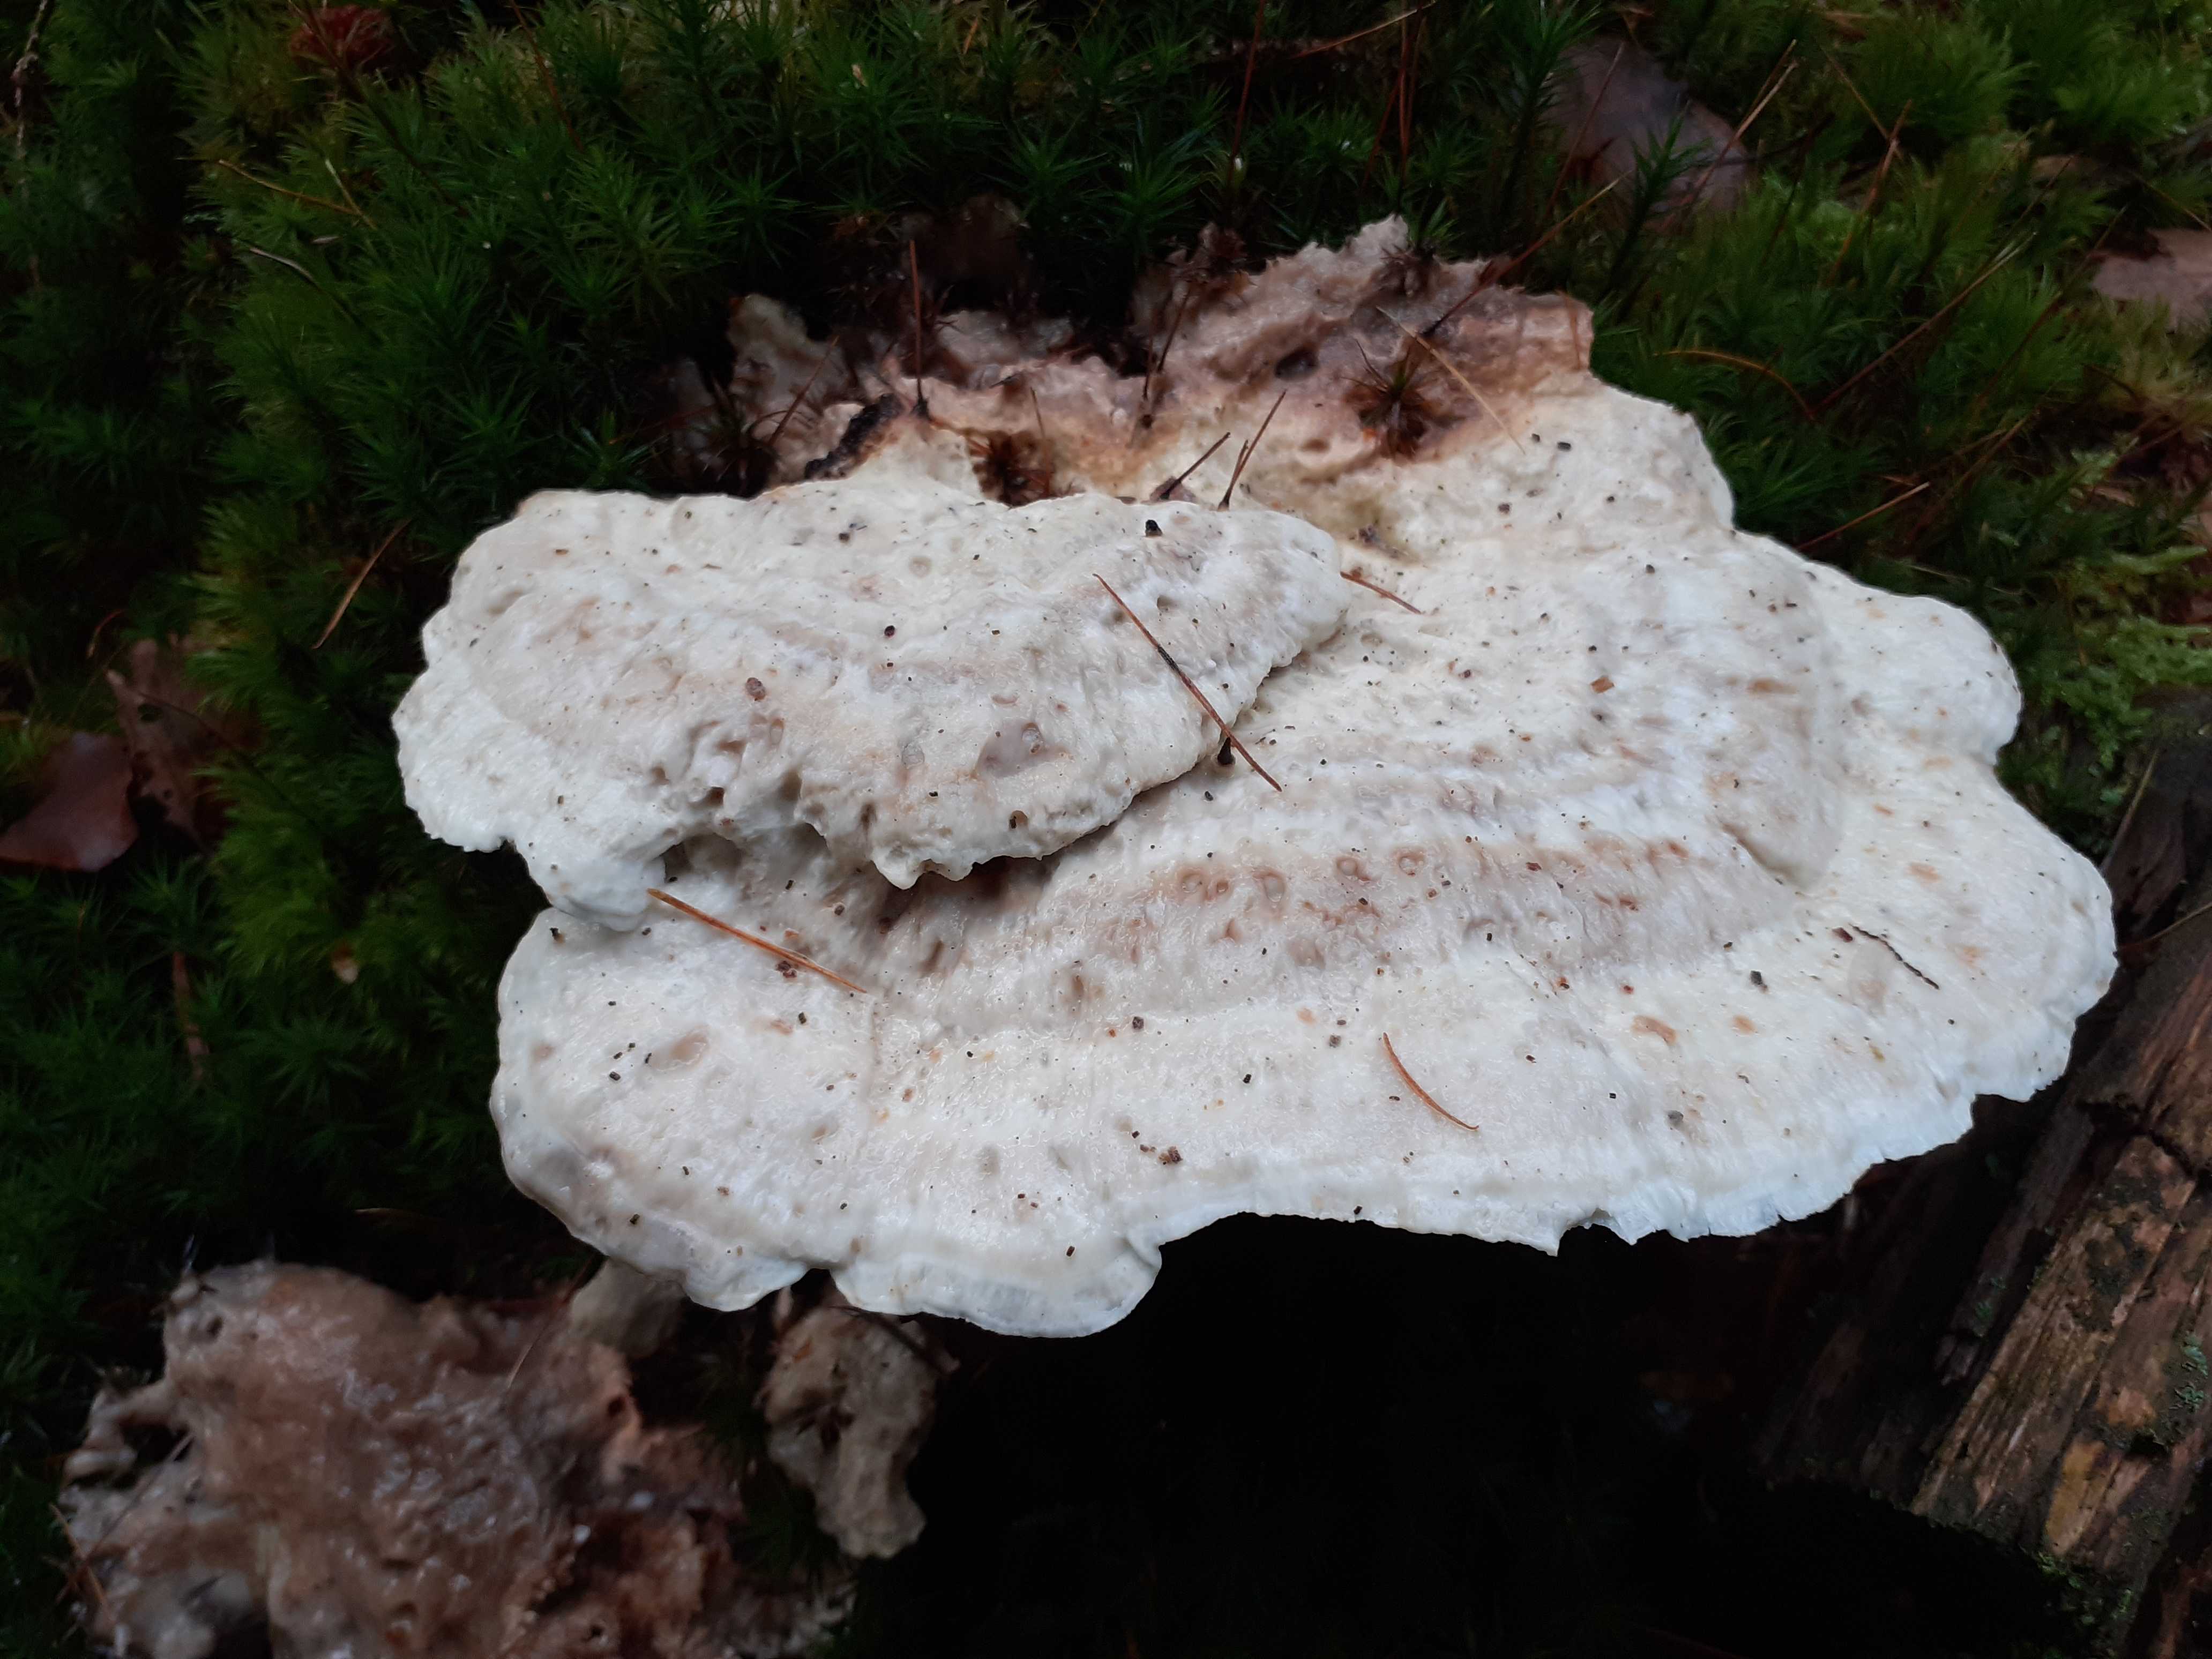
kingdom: Fungi
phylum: Basidiomycota
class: Agaricomycetes
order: Polyporales
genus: Calcipostia
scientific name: Calcipostia guttulata
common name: dråbe-kødporesvamp
